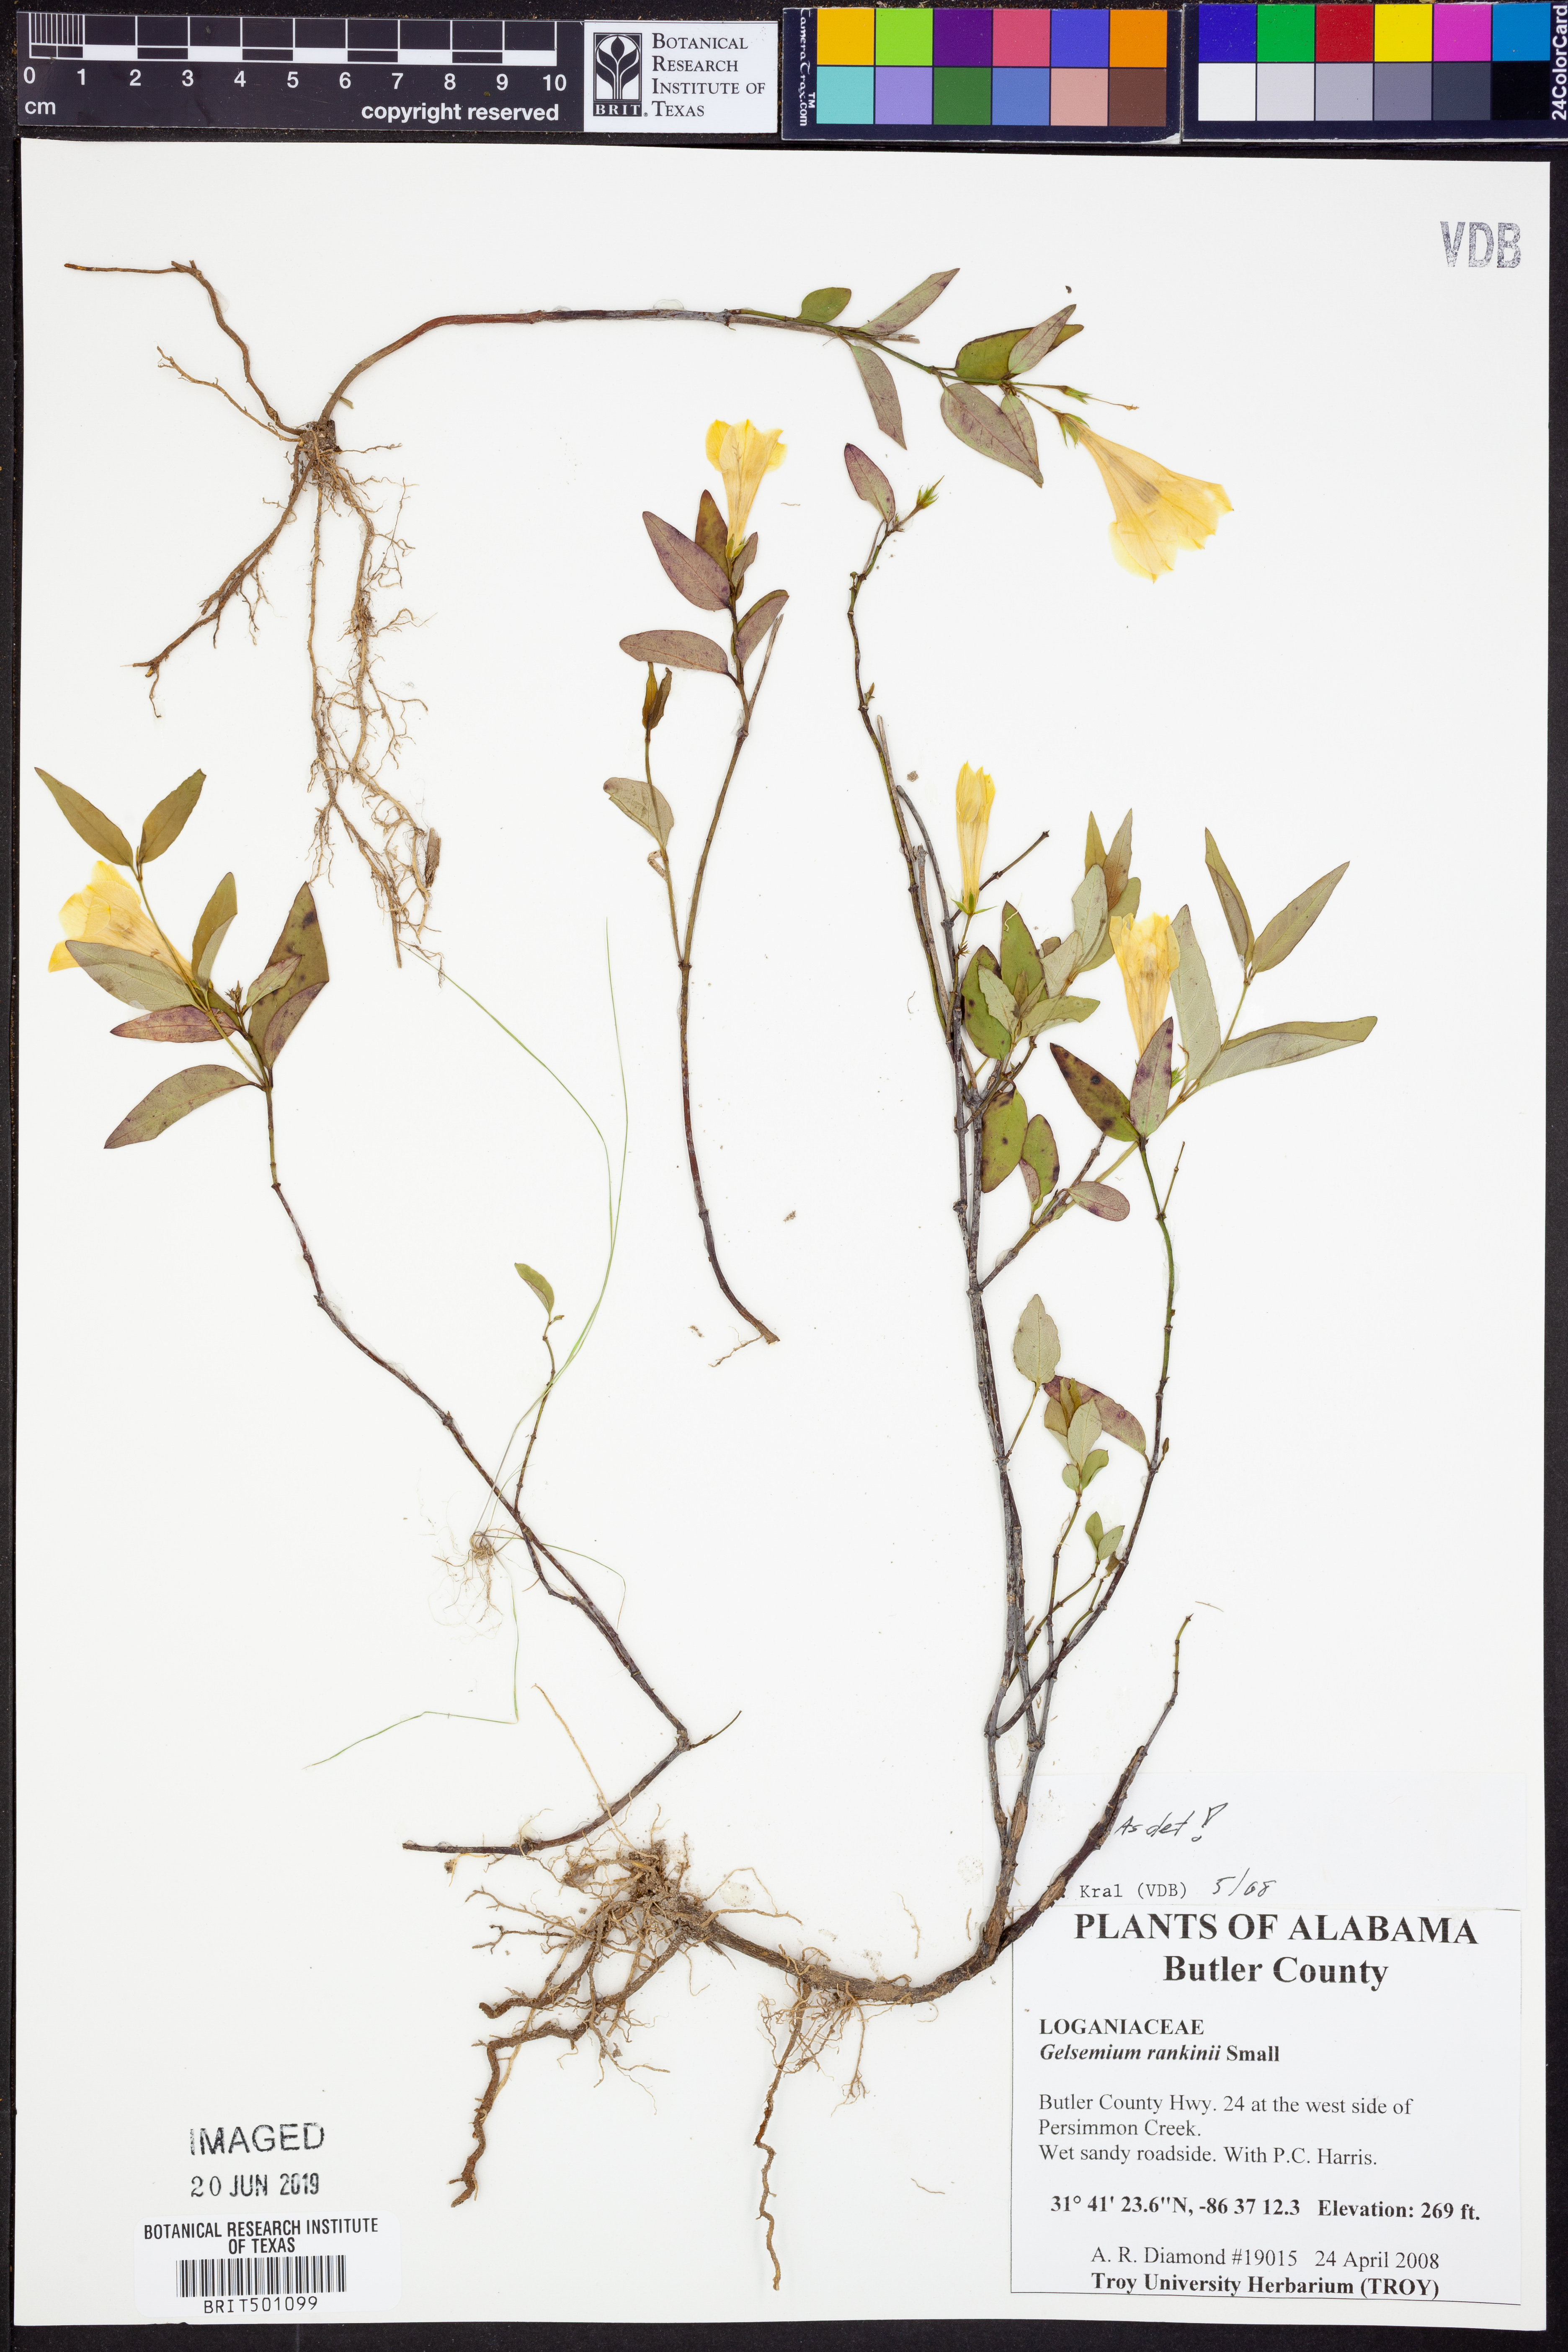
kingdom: Plantae
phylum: Tracheophyta
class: Magnoliopsida
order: Gentianales
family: Gelsemiaceae
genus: Gelsemium
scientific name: Gelsemium rankinii
